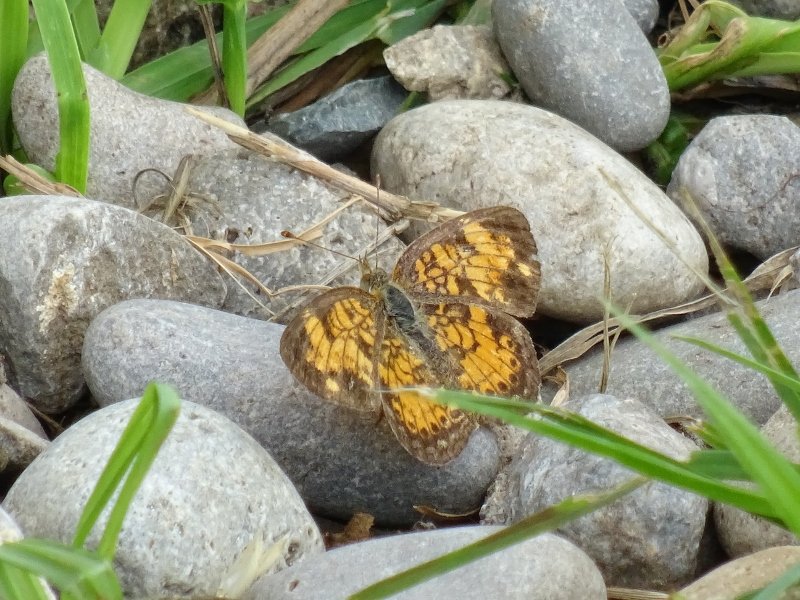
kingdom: Animalia
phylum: Arthropoda
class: Insecta
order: Lepidoptera
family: Nymphalidae
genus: Phyciodes
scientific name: Phyciodes tharos
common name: Northern Crescent
